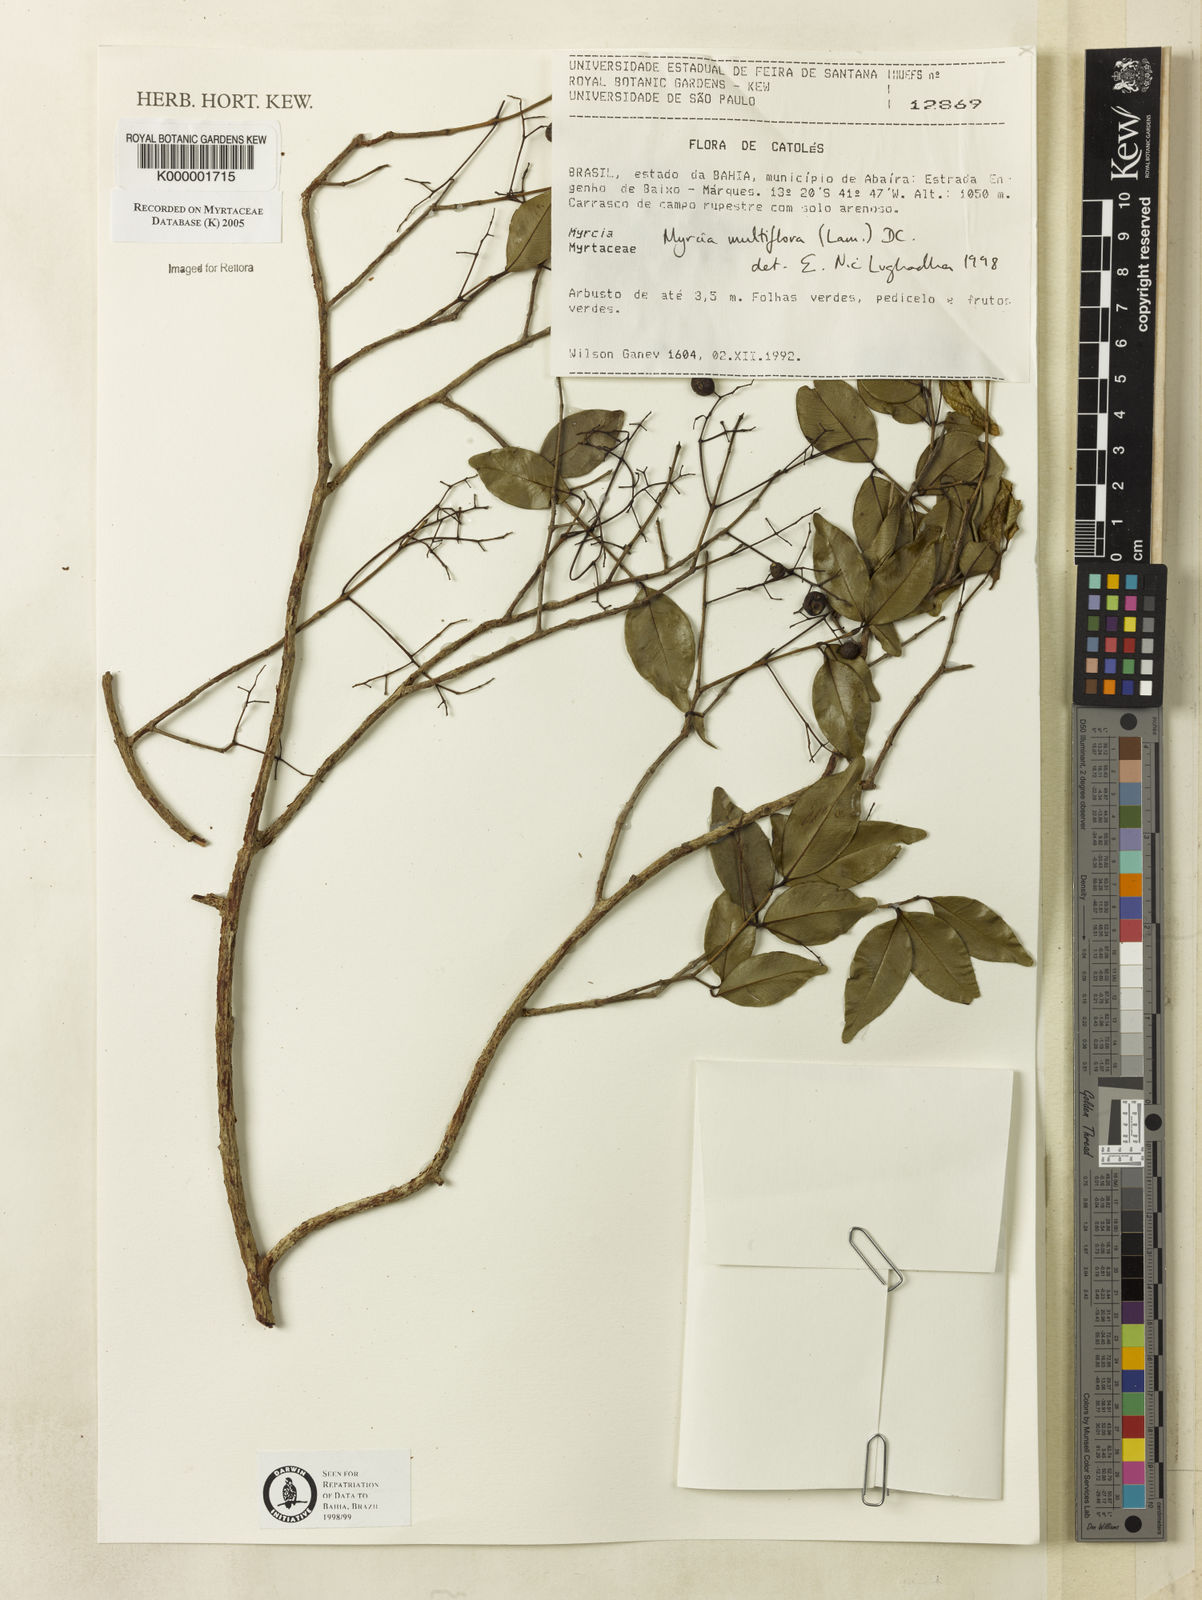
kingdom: Plantae
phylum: Tracheophyta
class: Magnoliopsida
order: Myrtales
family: Myrtaceae
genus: Myrcia
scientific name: Myrcia multiflora
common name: Pedra hume
